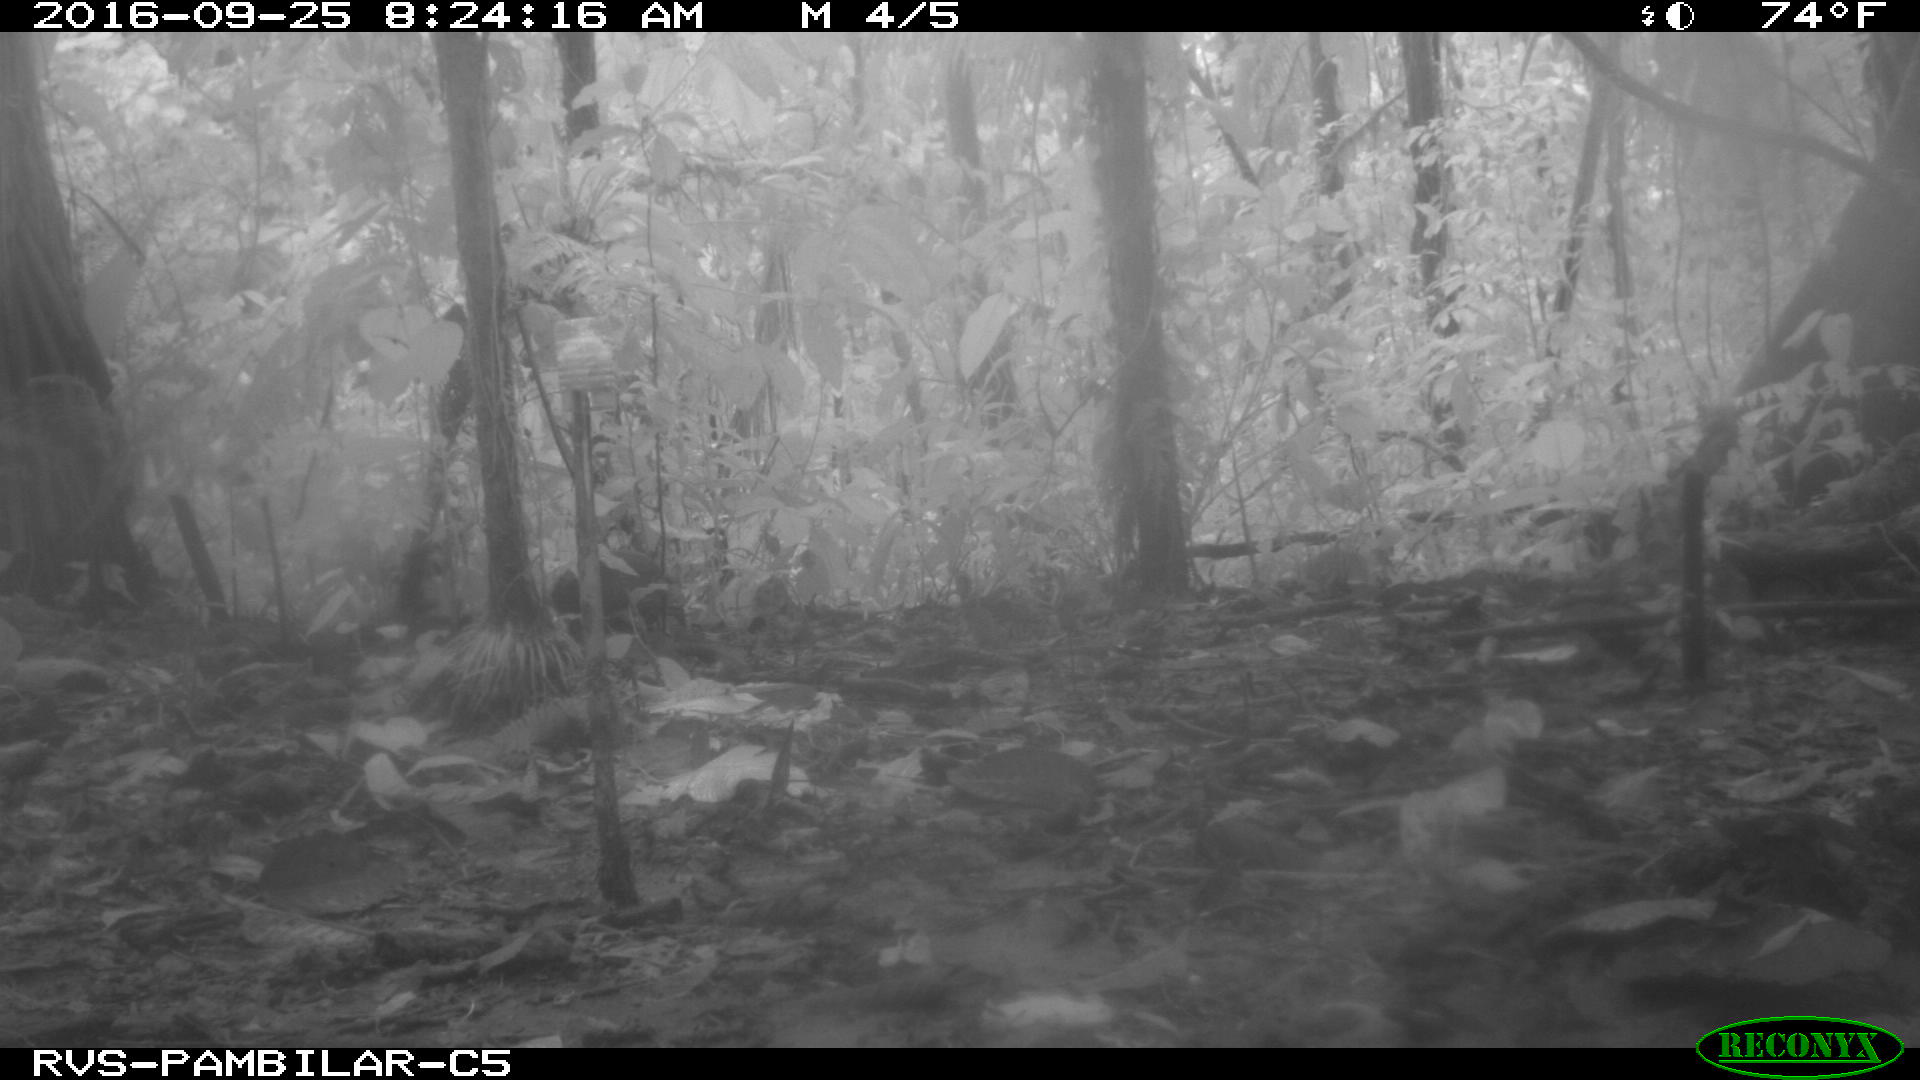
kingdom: Animalia
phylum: Chordata
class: Mammalia
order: Rodentia
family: Dasyproctidae
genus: Dasyprocta
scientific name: Dasyprocta punctata
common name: Central american agouti
